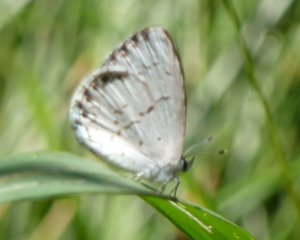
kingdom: Animalia
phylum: Arthropoda
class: Insecta
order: Lepidoptera
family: Lycaenidae
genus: Cyaniris
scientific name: Cyaniris neglecta
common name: Summer Azure
